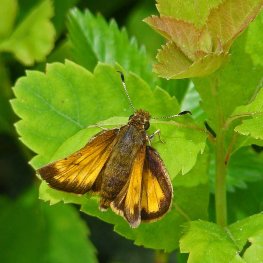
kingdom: Animalia
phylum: Arthropoda
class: Insecta
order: Lepidoptera
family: Hesperiidae
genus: Lon
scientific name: Lon hobomok
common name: Hobomok Skipper
